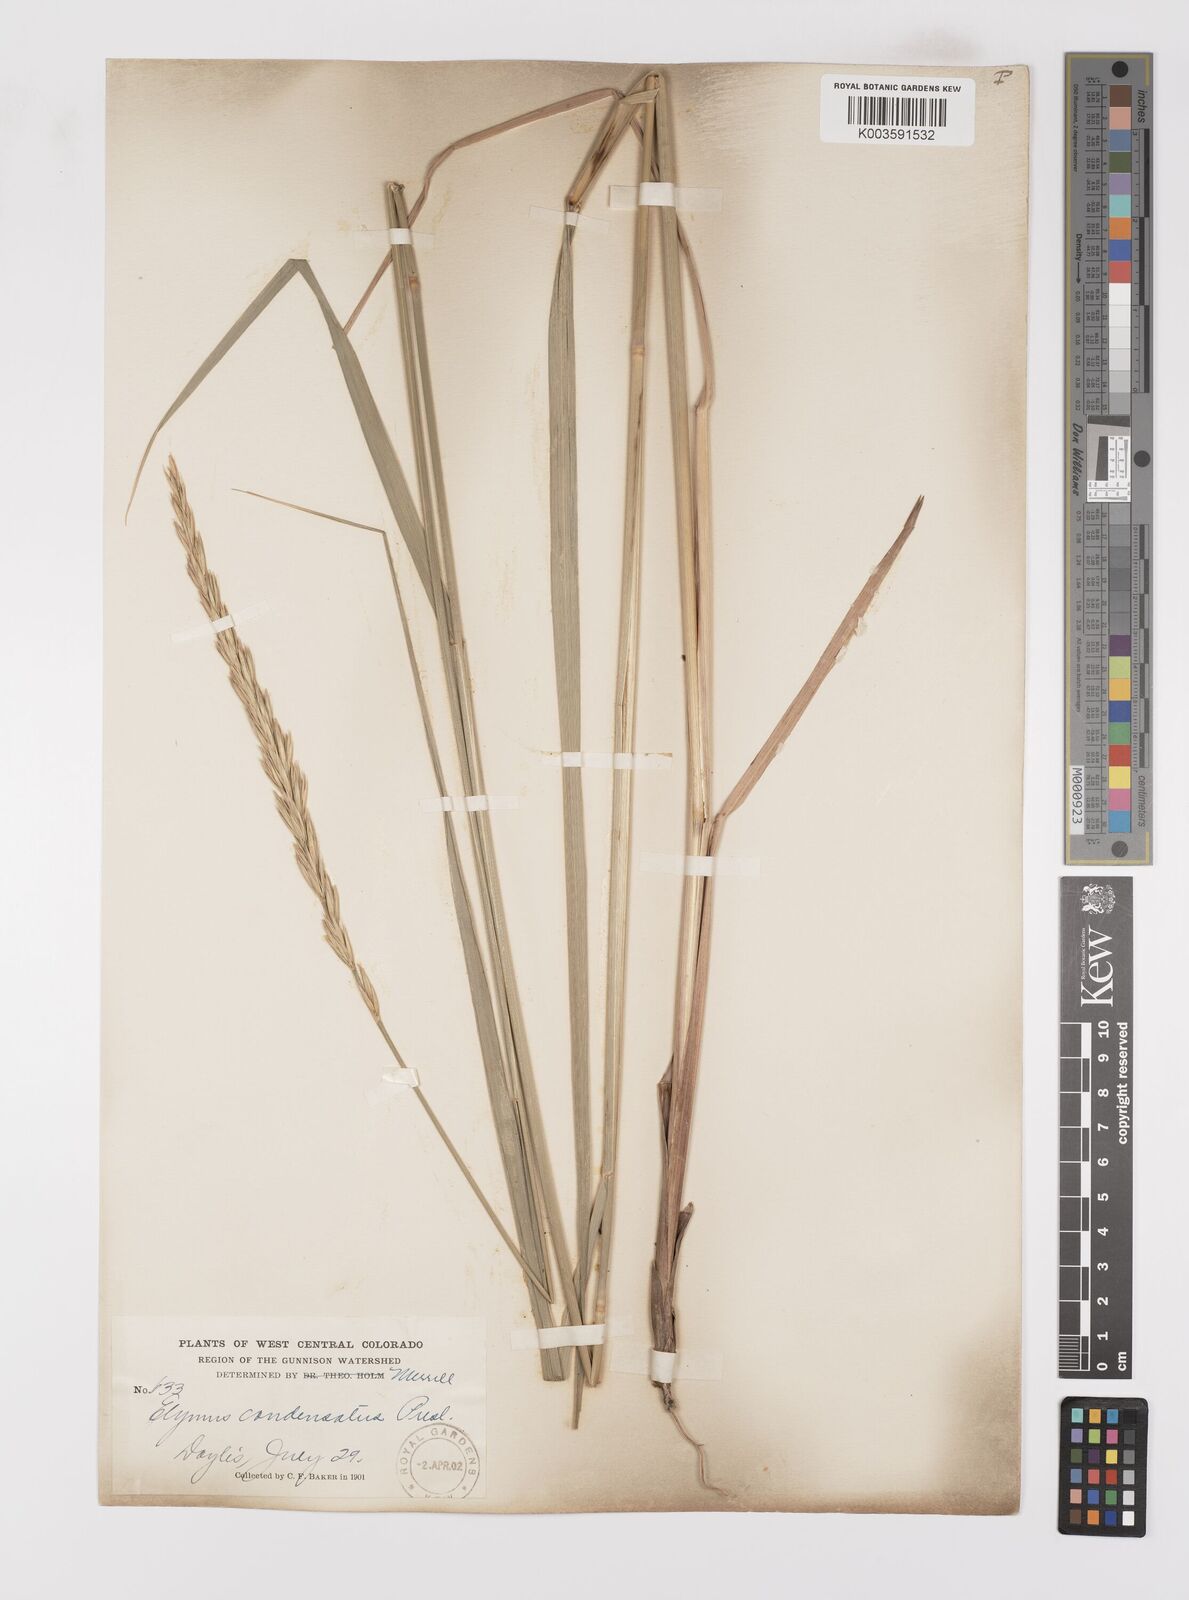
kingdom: Plantae
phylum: Tracheophyta
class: Liliopsida
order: Poales
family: Poaceae
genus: Leymus
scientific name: Leymus condensatus
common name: Giant wild rye
